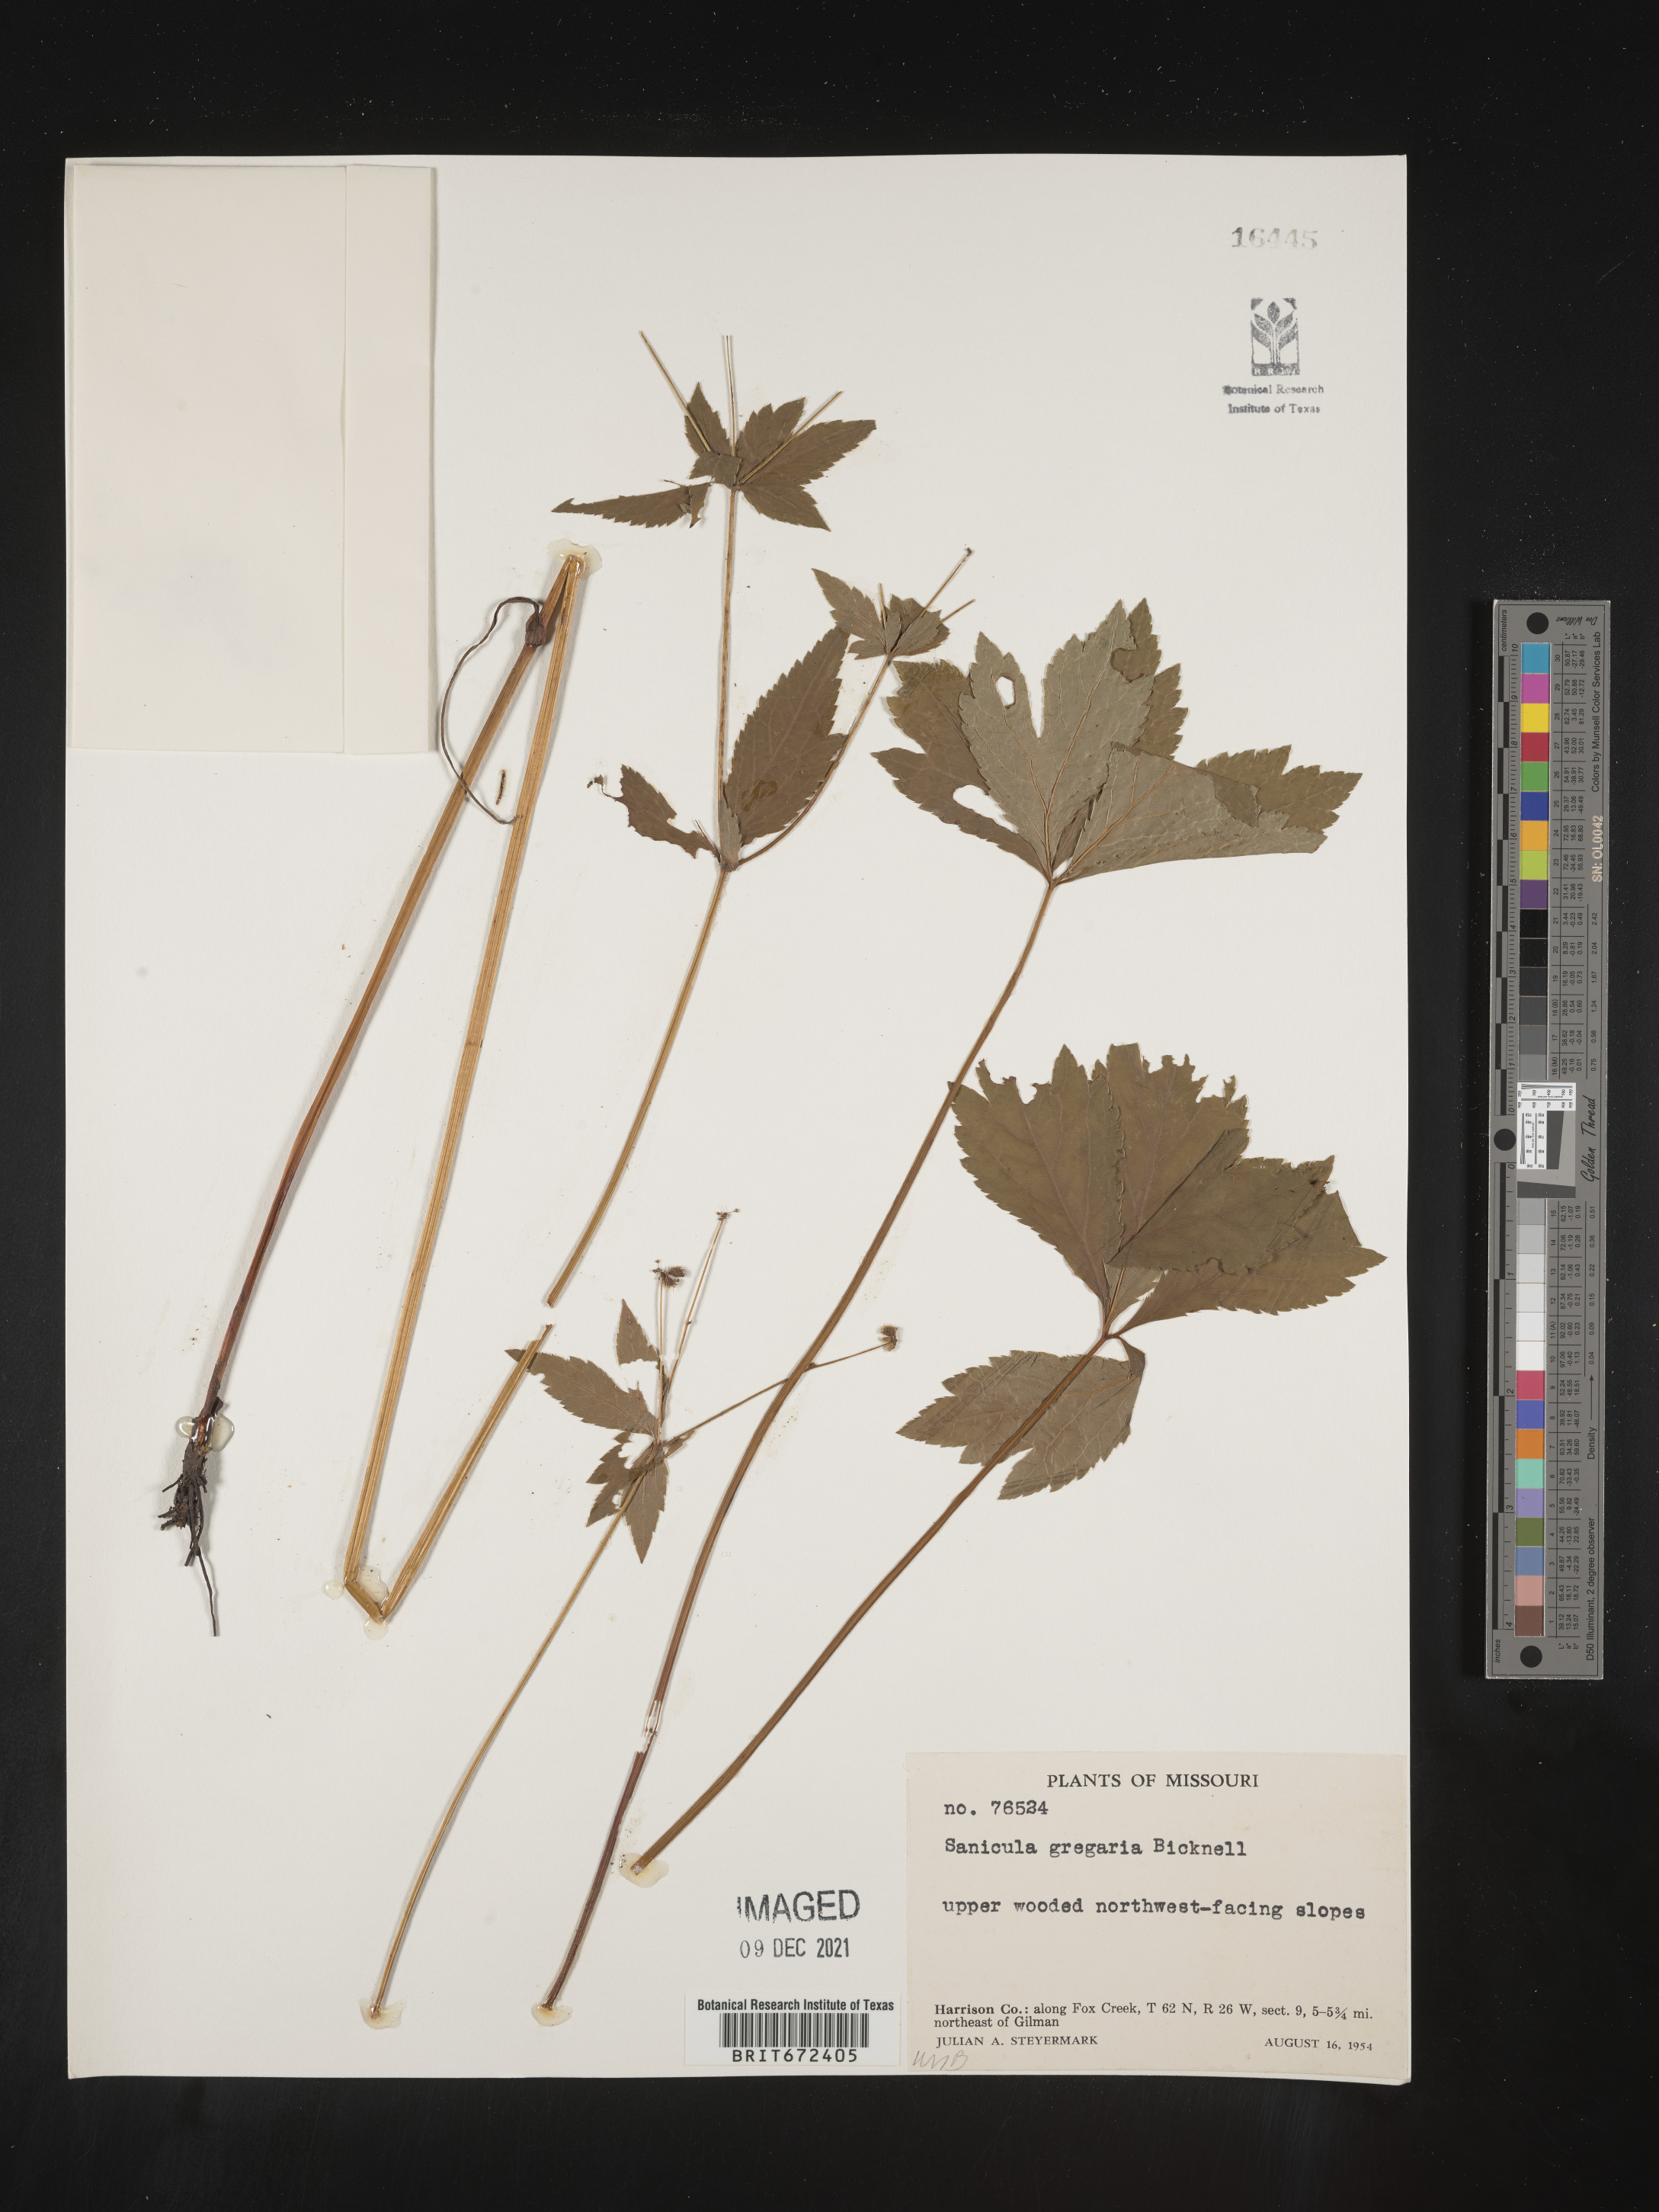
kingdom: Plantae
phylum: Tracheophyta
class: Magnoliopsida
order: Apiales
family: Apiaceae
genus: Sanicula
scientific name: Sanicula odorata
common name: Cluster sanicle
